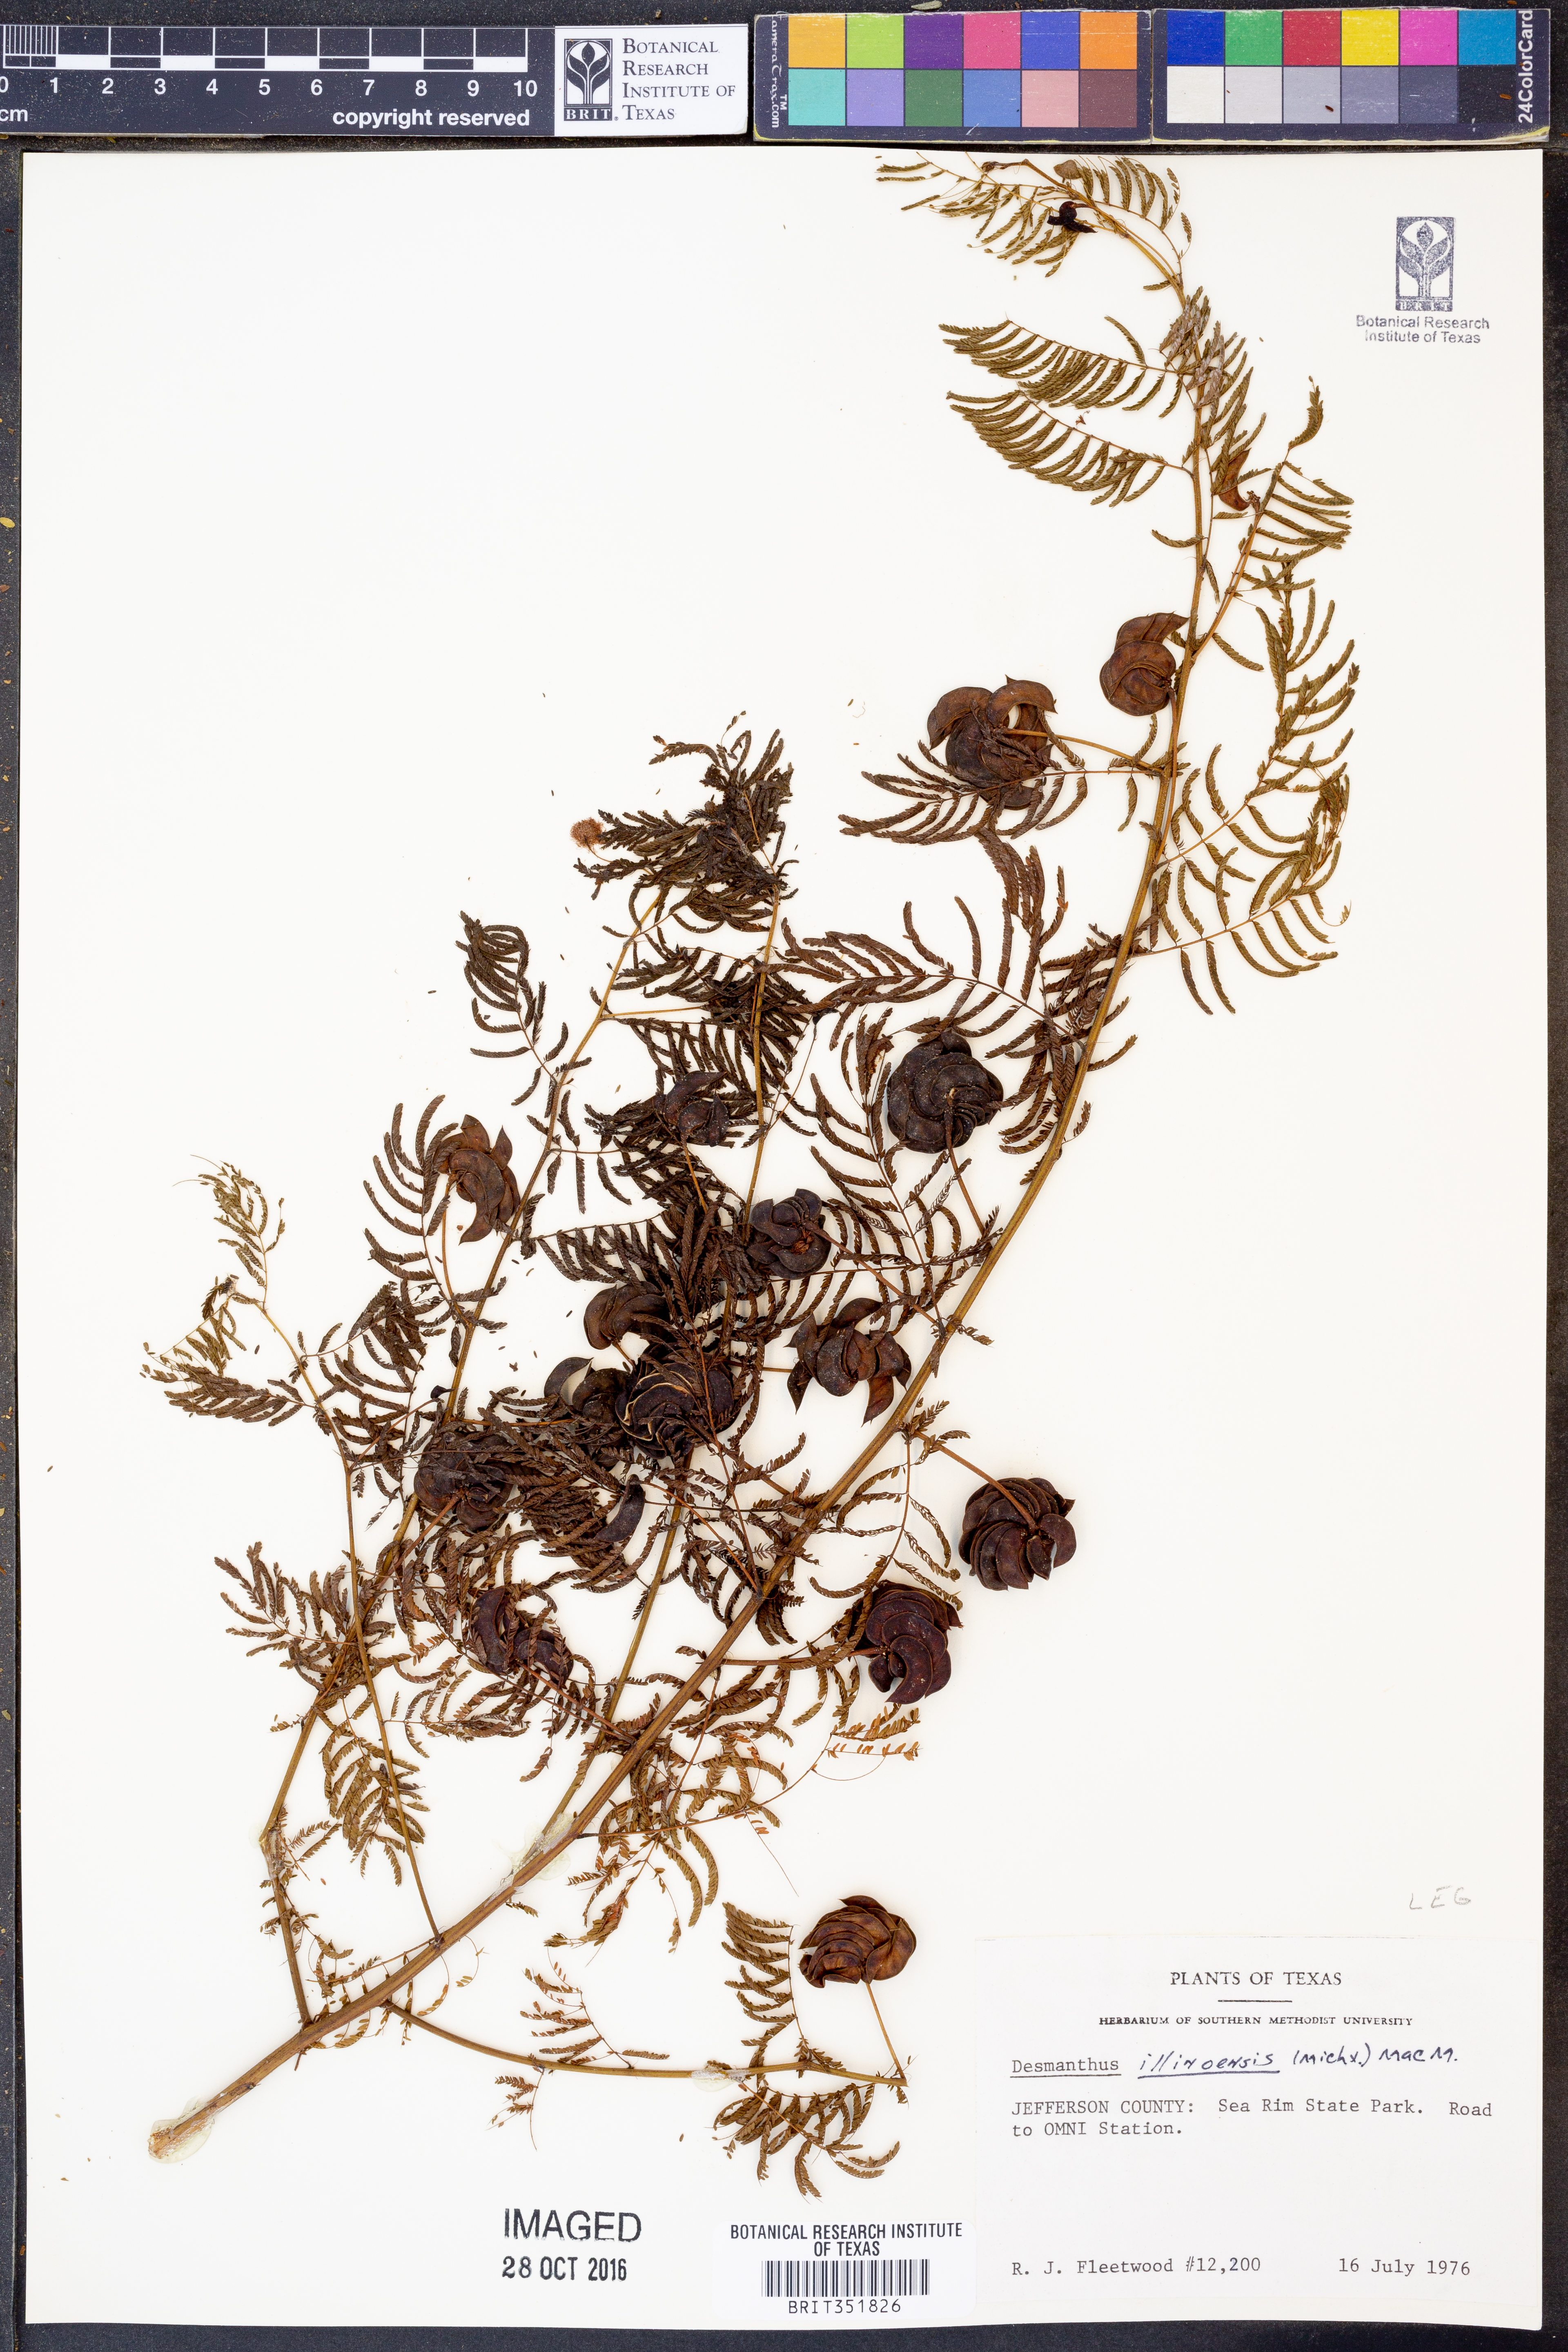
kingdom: Plantae
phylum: Tracheophyta
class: Magnoliopsida
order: Fabales
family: Fabaceae
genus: Desmanthus
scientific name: Desmanthus illinoensis
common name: Illinois bundle-flower
